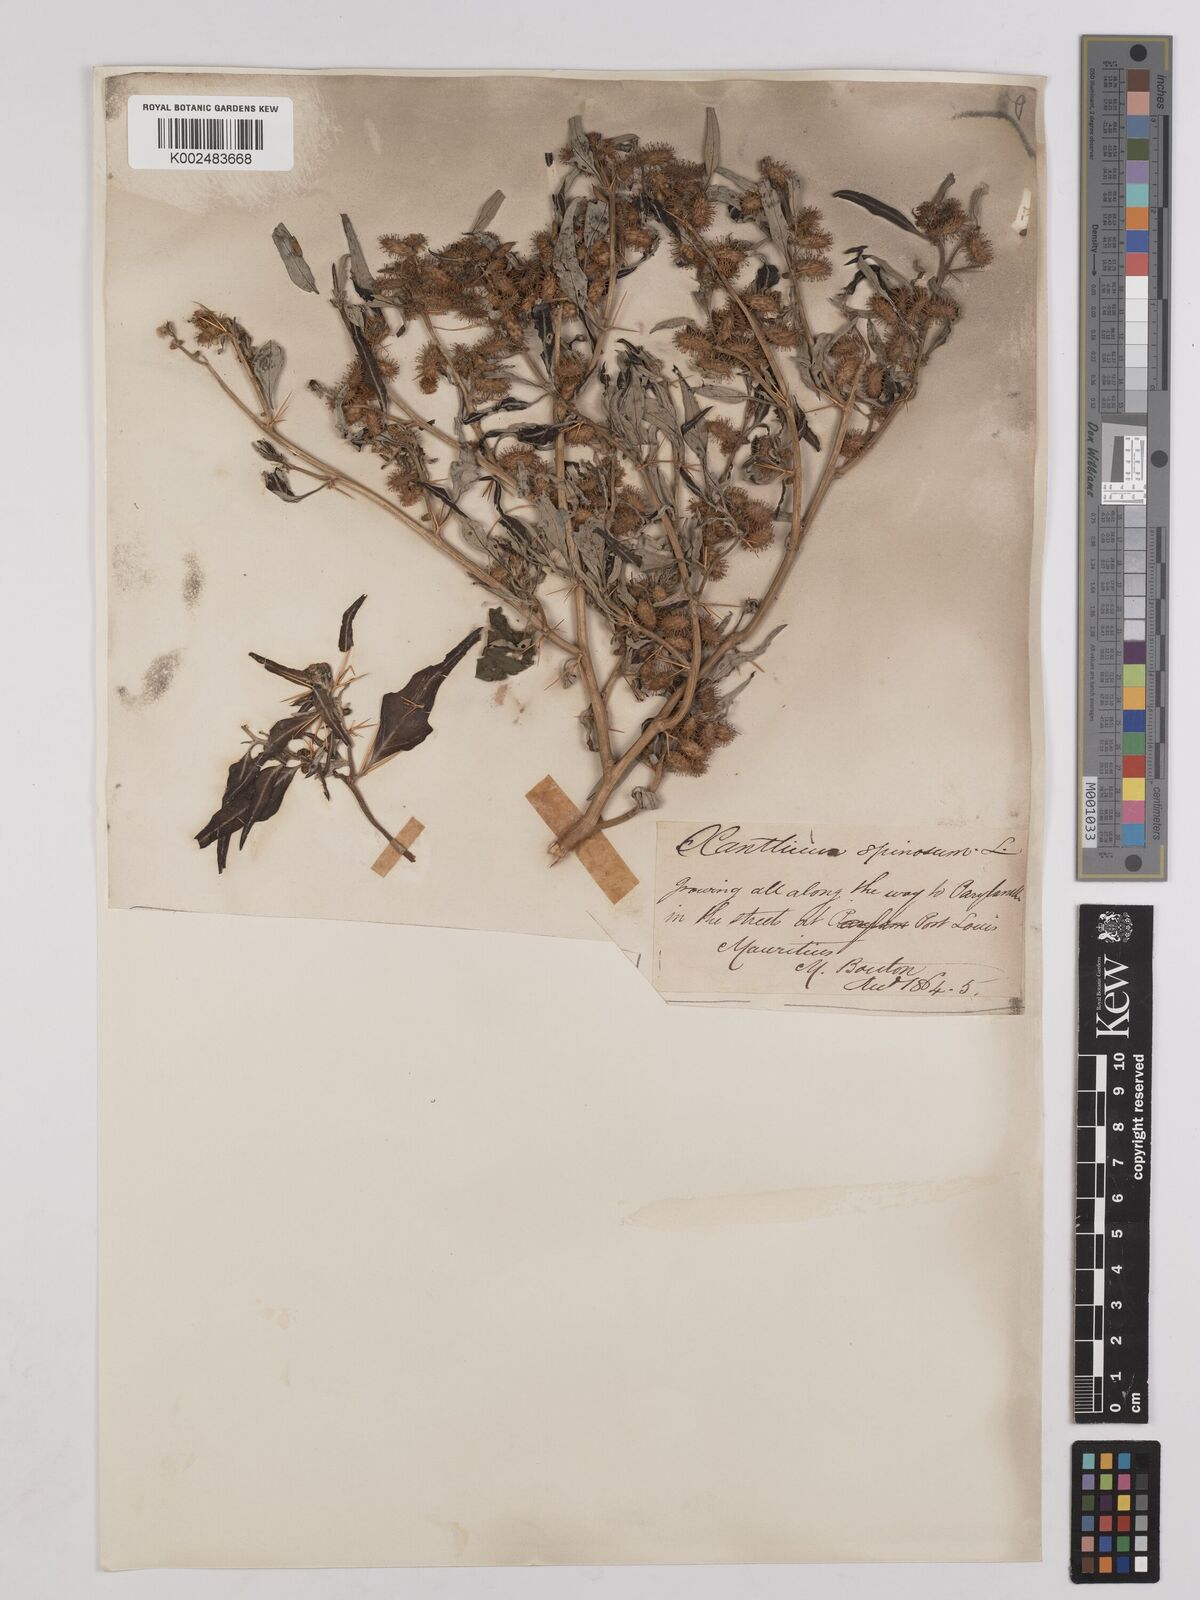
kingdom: Plantae
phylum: Tracheophyta
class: Magnoliopsida
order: Asterales
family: Asteraceae
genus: Xanthium
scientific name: Xanthium orientale
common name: Californian burr
